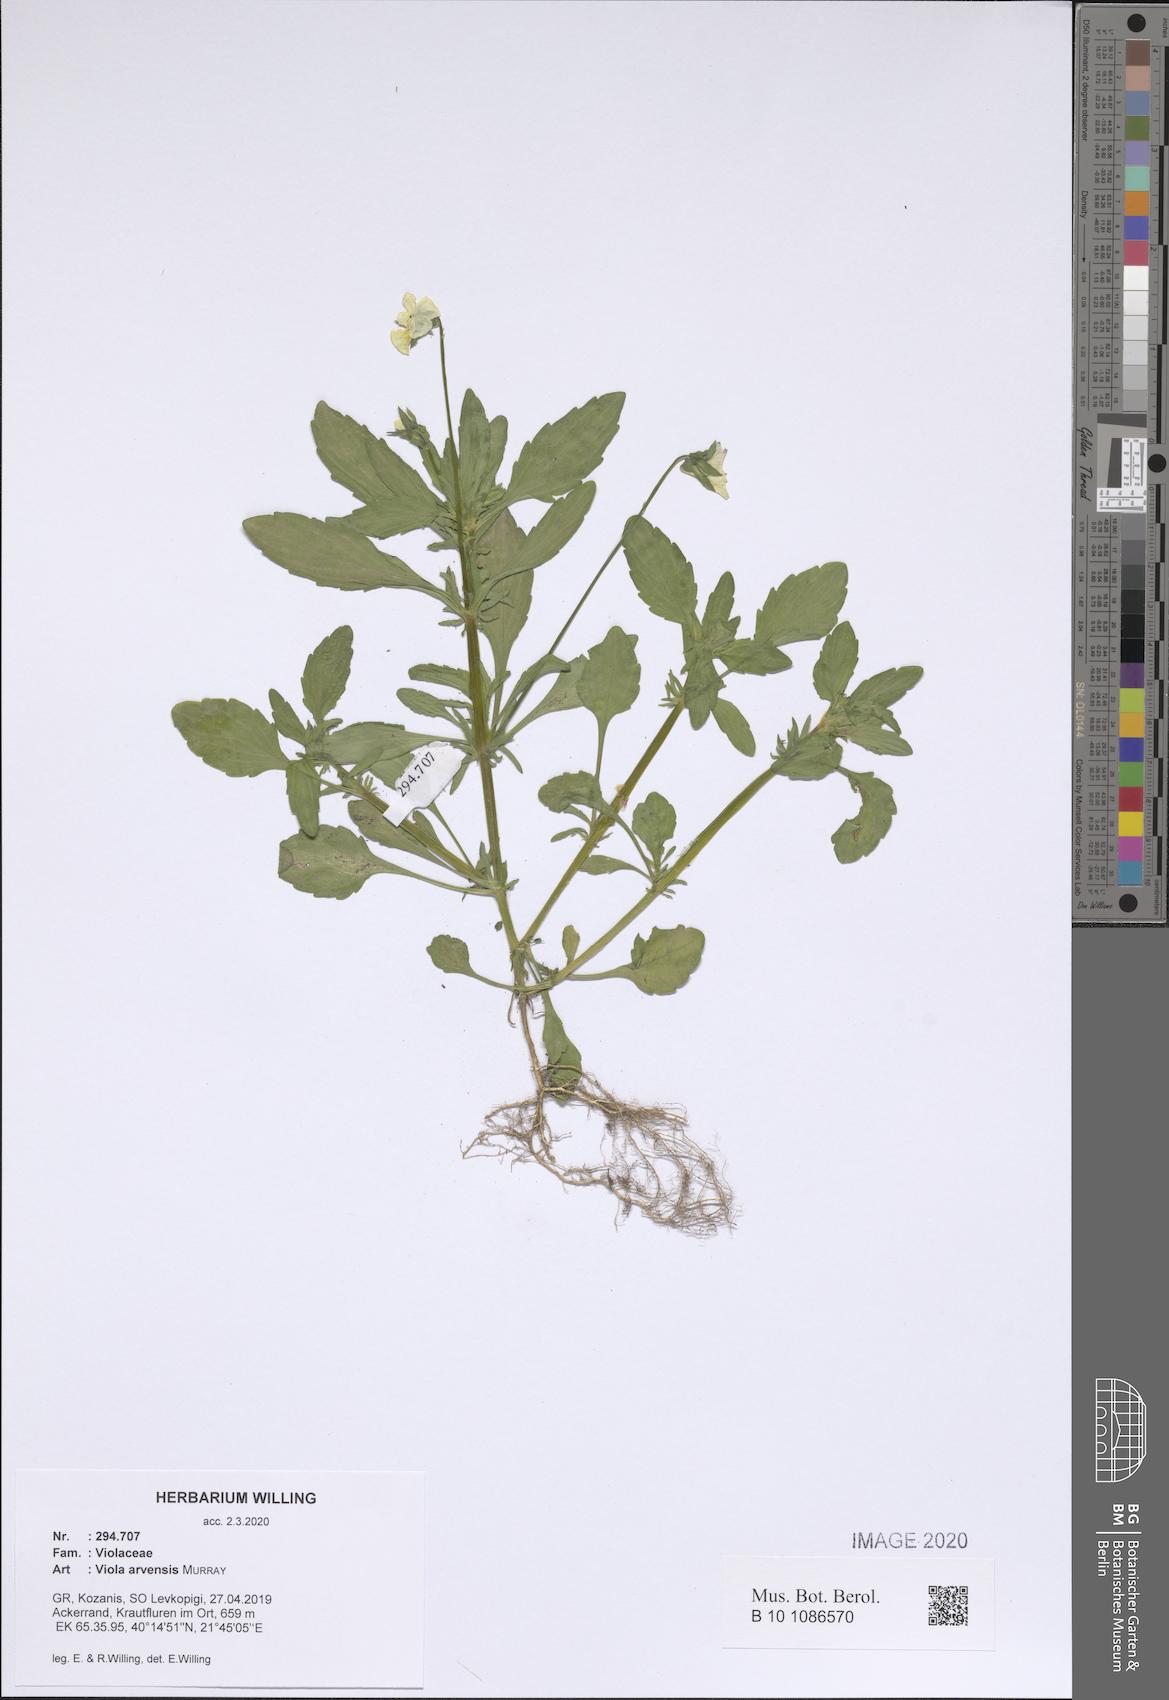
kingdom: Plantae
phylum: Tracheophyta
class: Magnoliopsida
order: Malpighiales
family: Violaceae
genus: Viola
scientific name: Viola arvensis
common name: Field pansy
